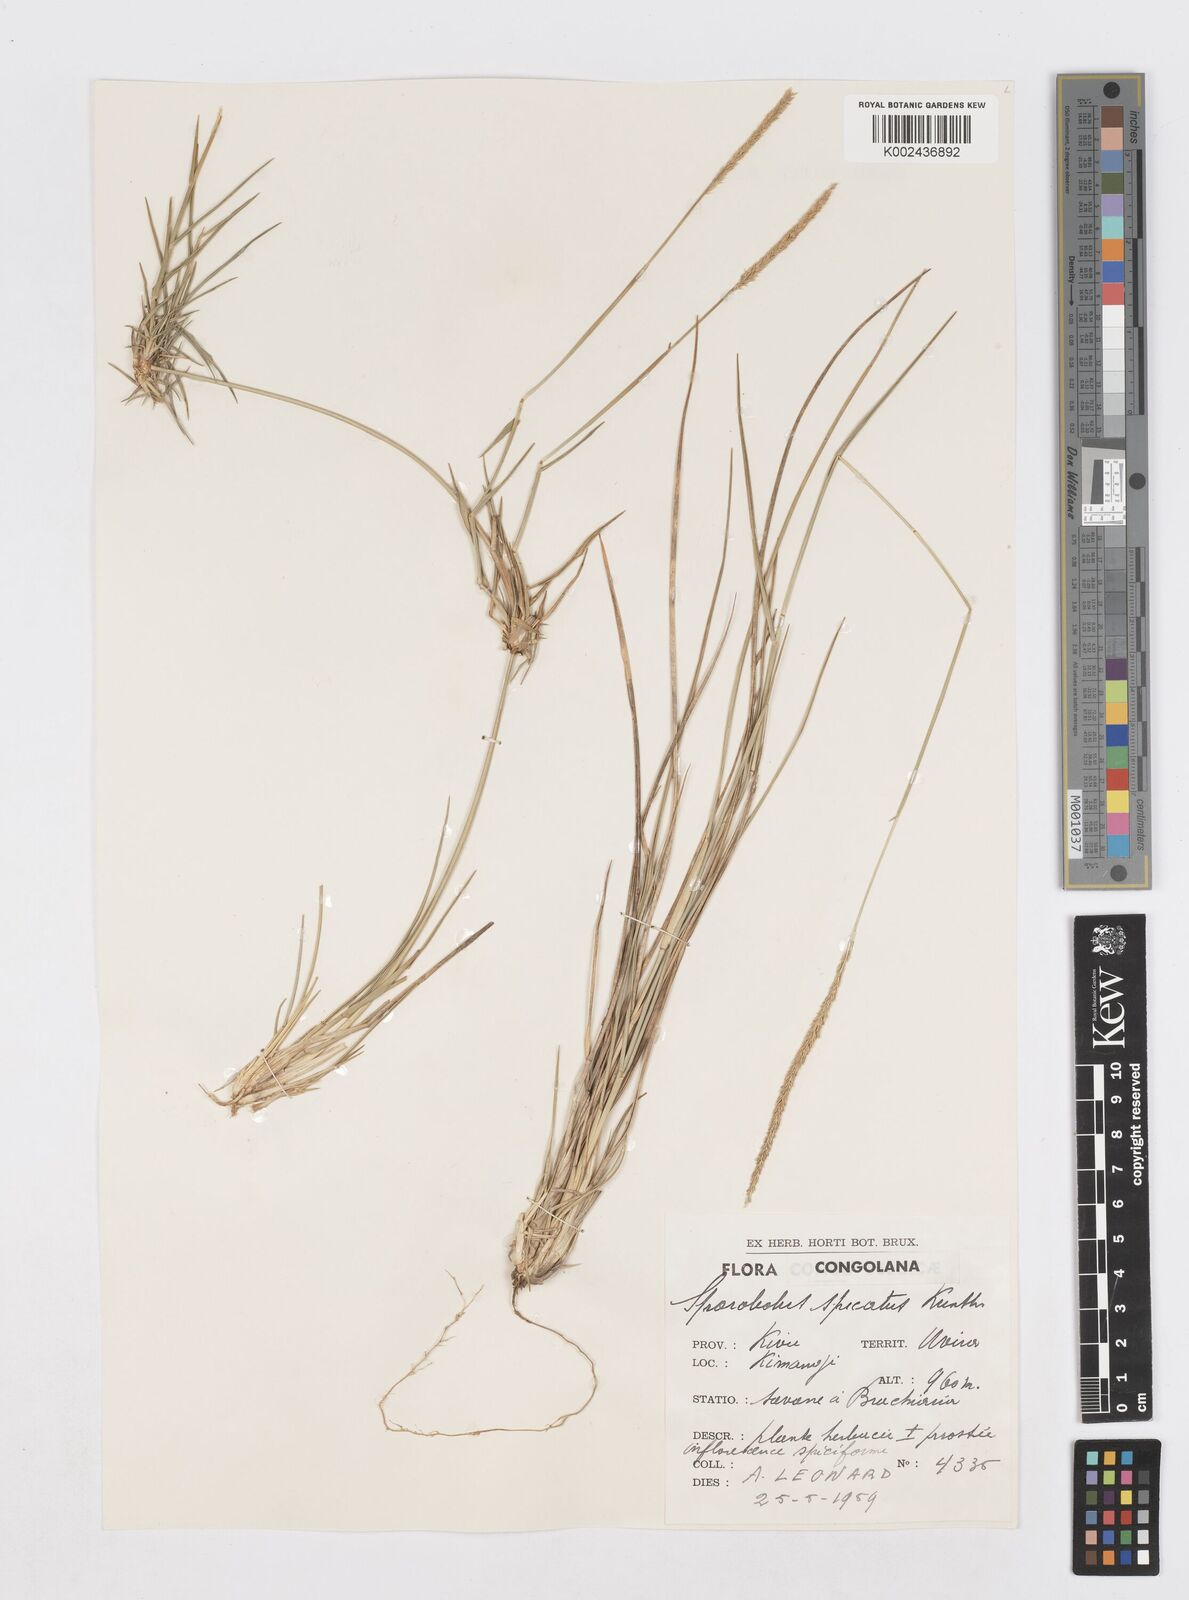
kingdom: Plantae
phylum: Tracheophyta
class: Liliopsida
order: Poales
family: Poaceae
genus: Sporobolus
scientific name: Sporobolus spicatus
